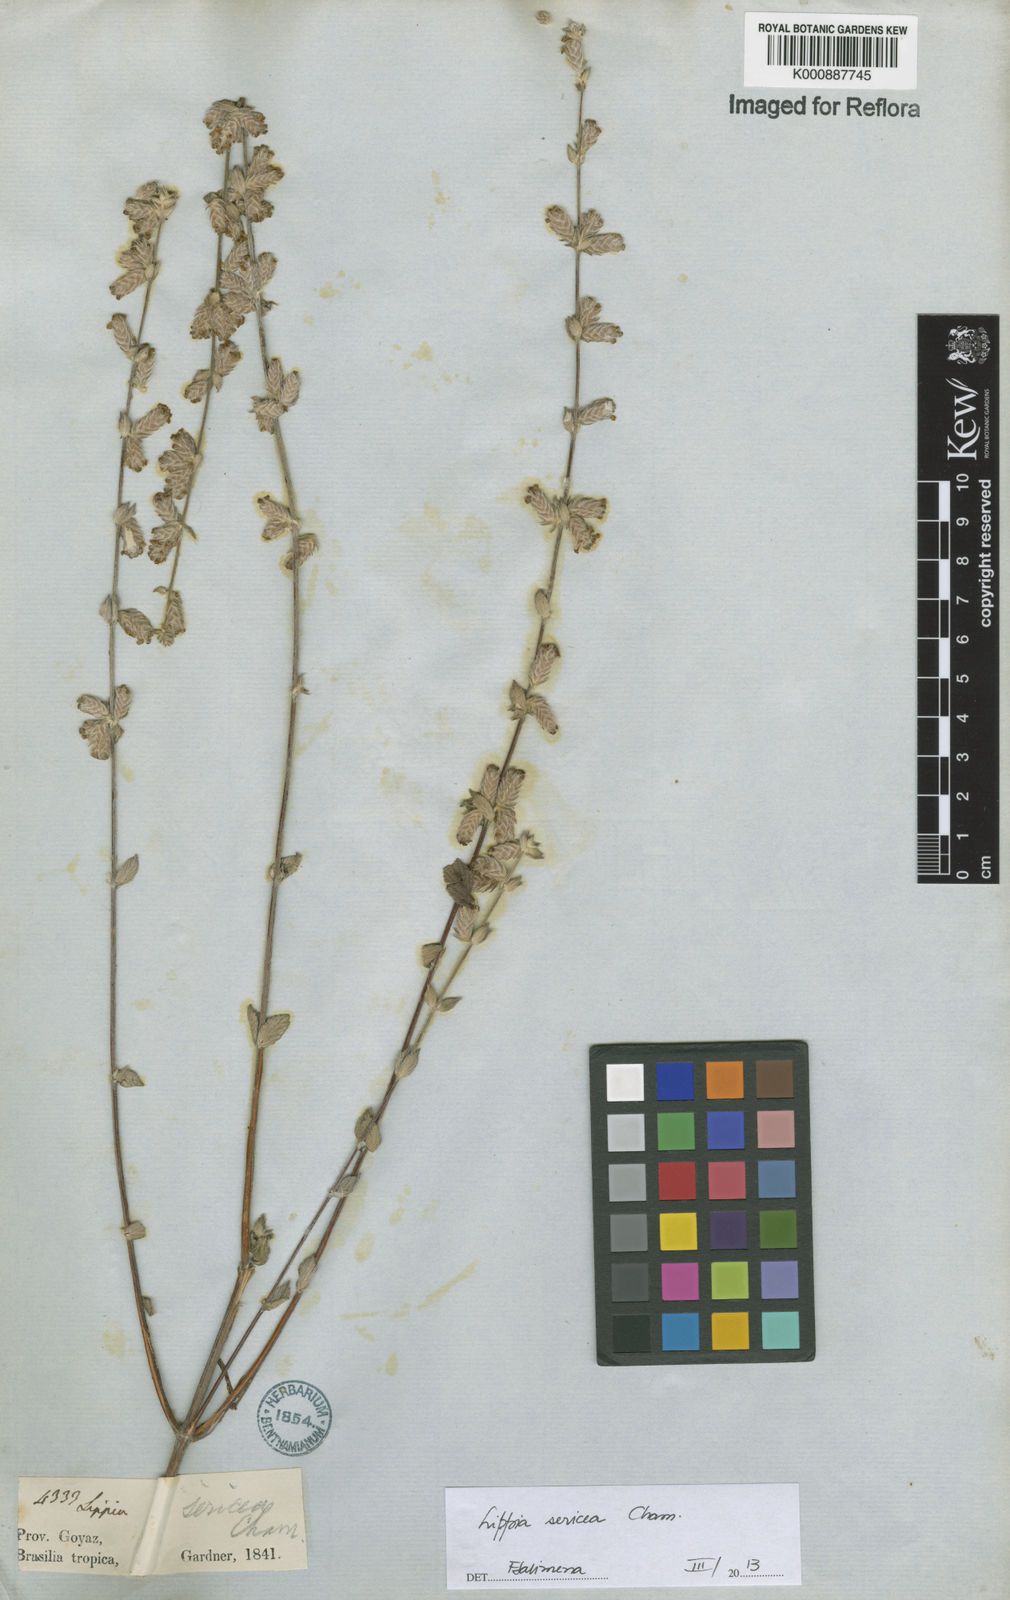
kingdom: Plantae
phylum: Tracheophyta
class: Magnoliopsida
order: Lamiales
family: Verbenaceae
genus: Lippia
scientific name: Lippia sericea
